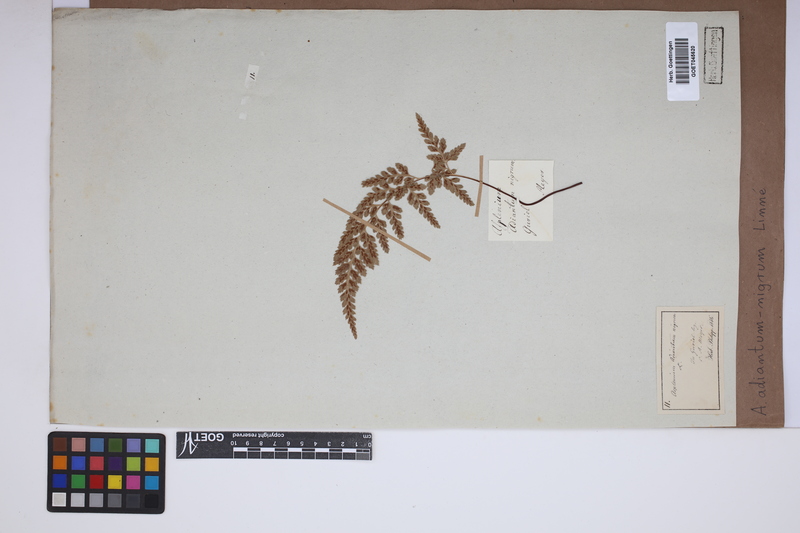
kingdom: Plantae
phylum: Tracheophyta
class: Polypodiopsida
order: Polypodiales
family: Aspleniaceae
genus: Asplenium
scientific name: Asplenium adiantum-nigrum
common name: Black spleenwort
